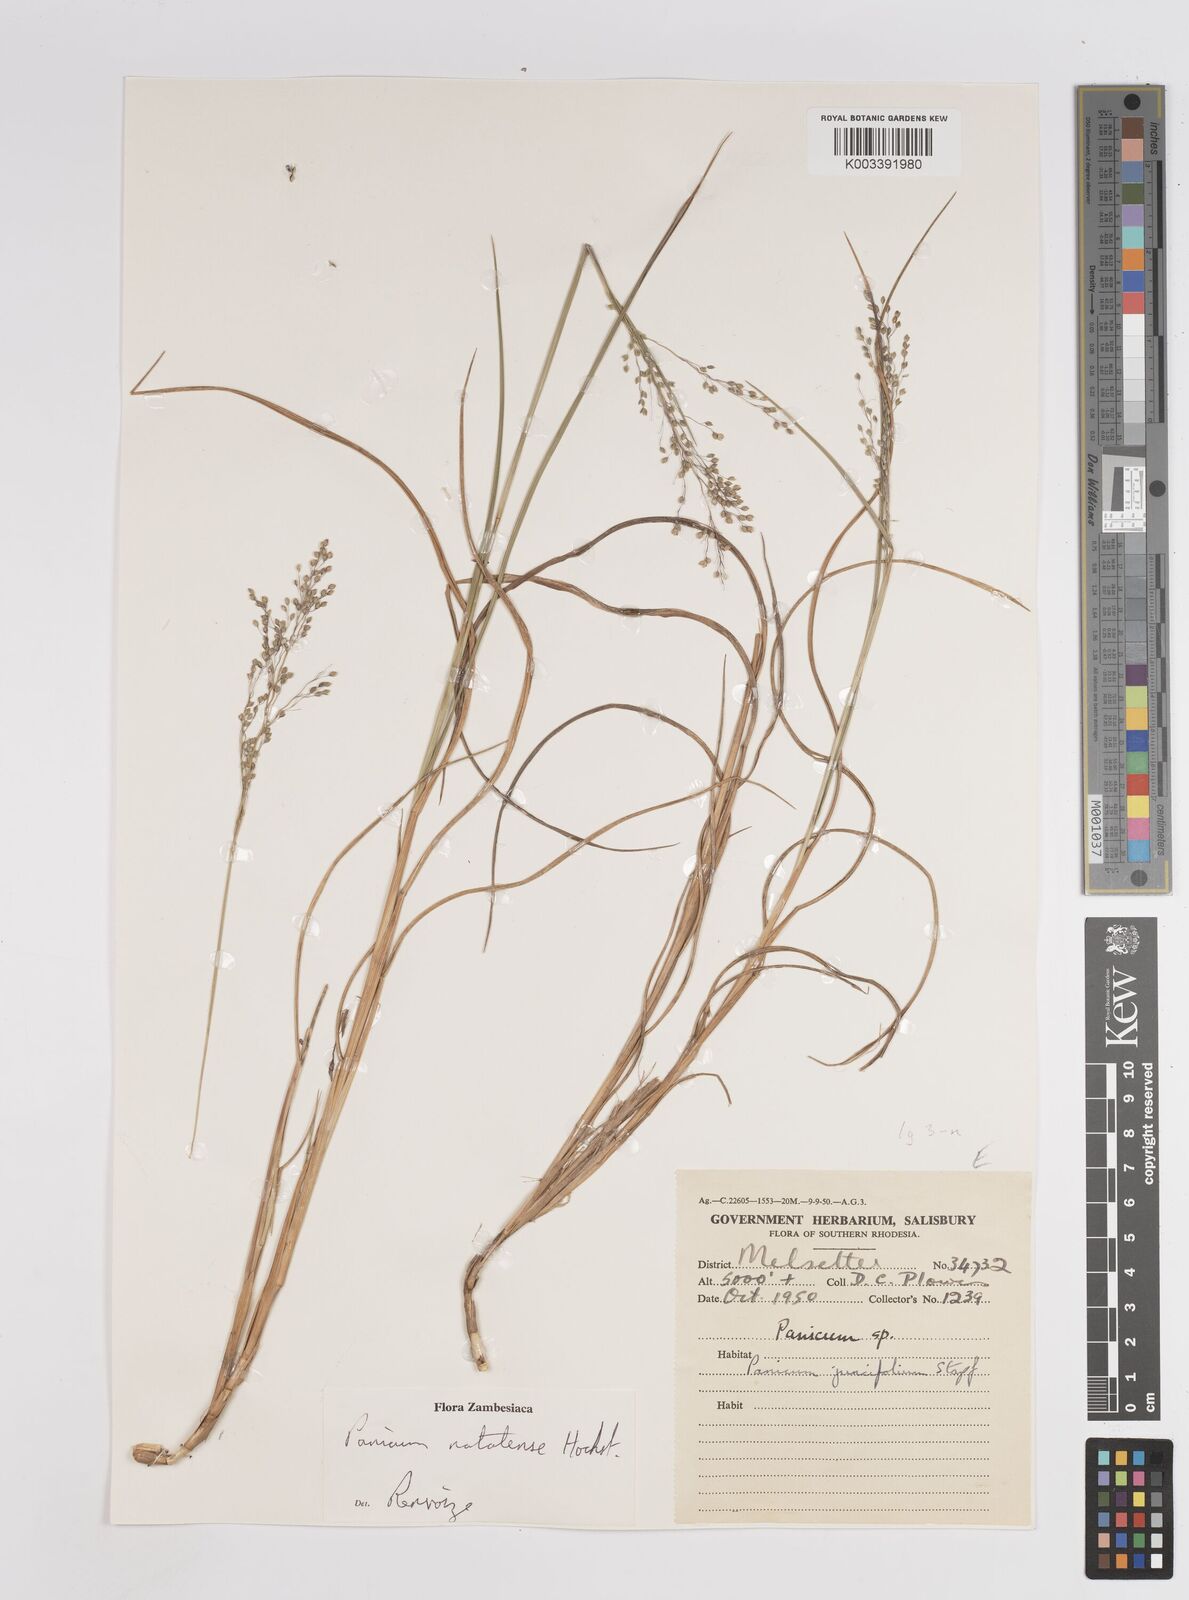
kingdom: Plantae
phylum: Tracheophyta
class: Liliopsida
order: Poales
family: Poaceae
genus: Trichanthecium
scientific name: Trichanthecium natalense
